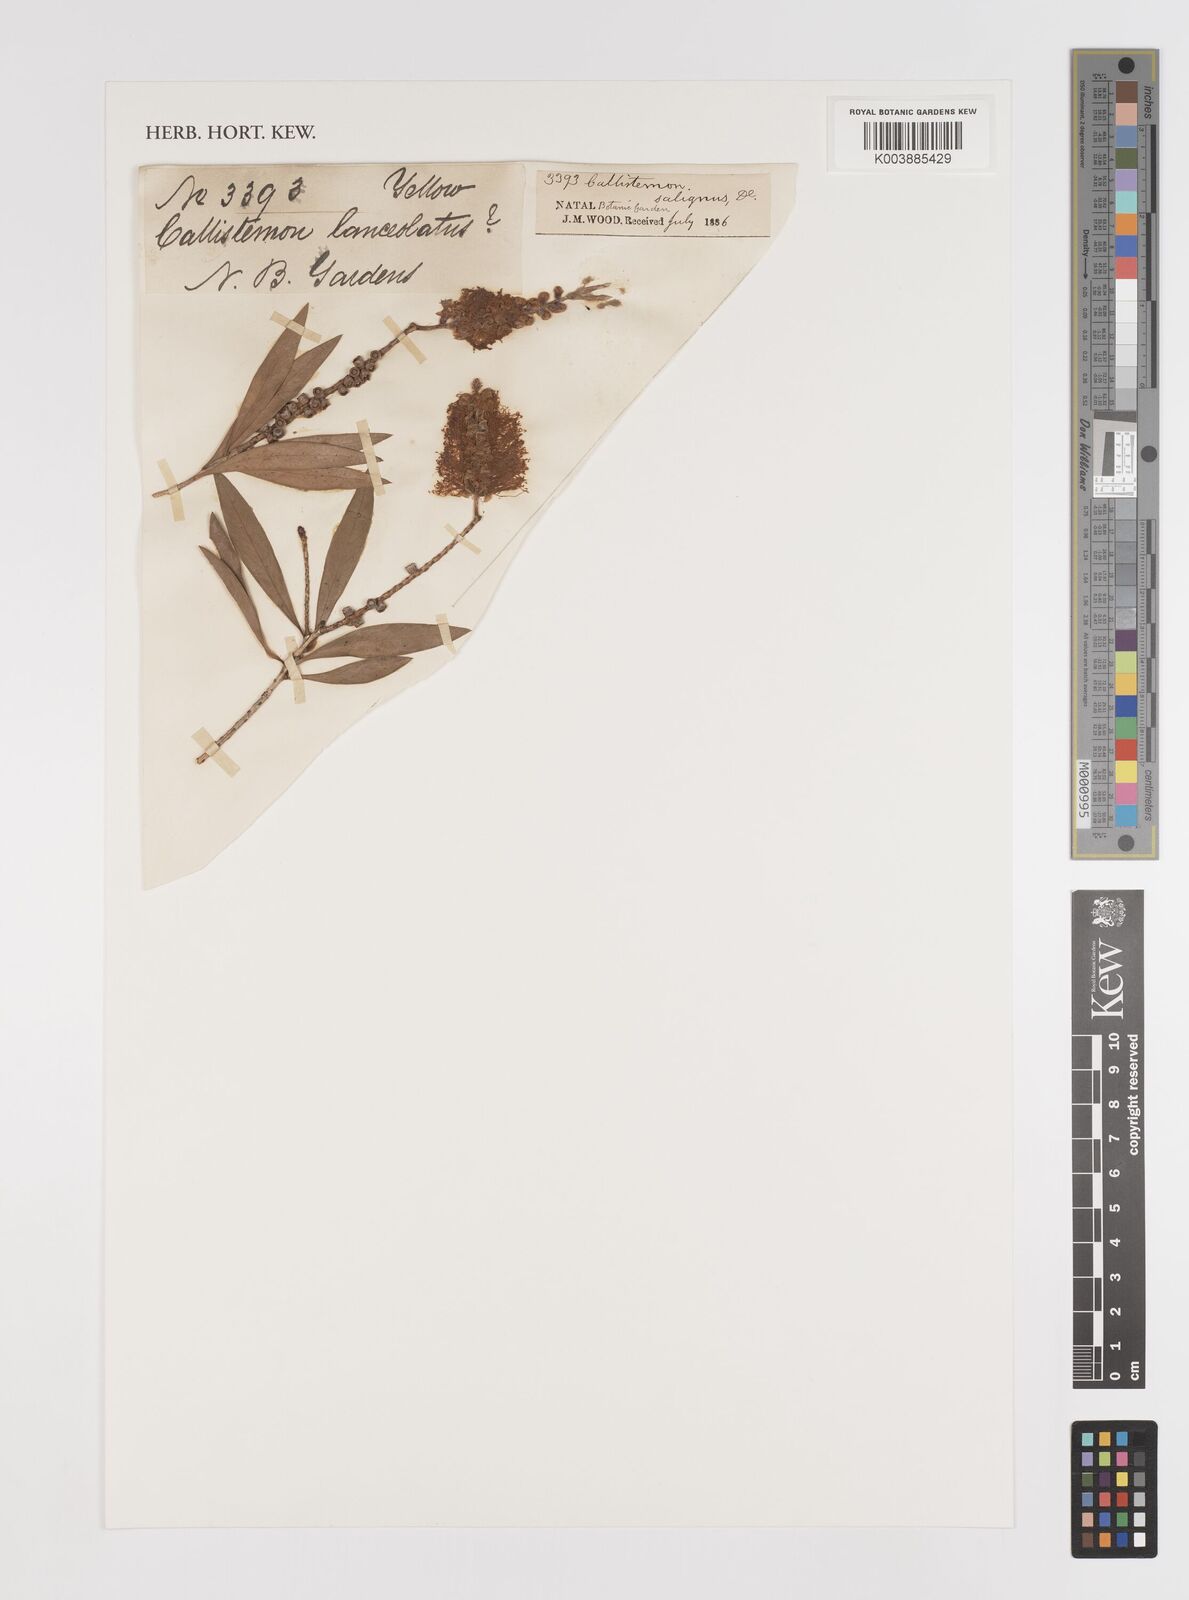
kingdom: Plantae
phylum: Tracheophyta
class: Magnoliopsida
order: Myrtales
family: Myrtaceae
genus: Callistemon
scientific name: Callistemon salignus
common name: White bottlebrush
